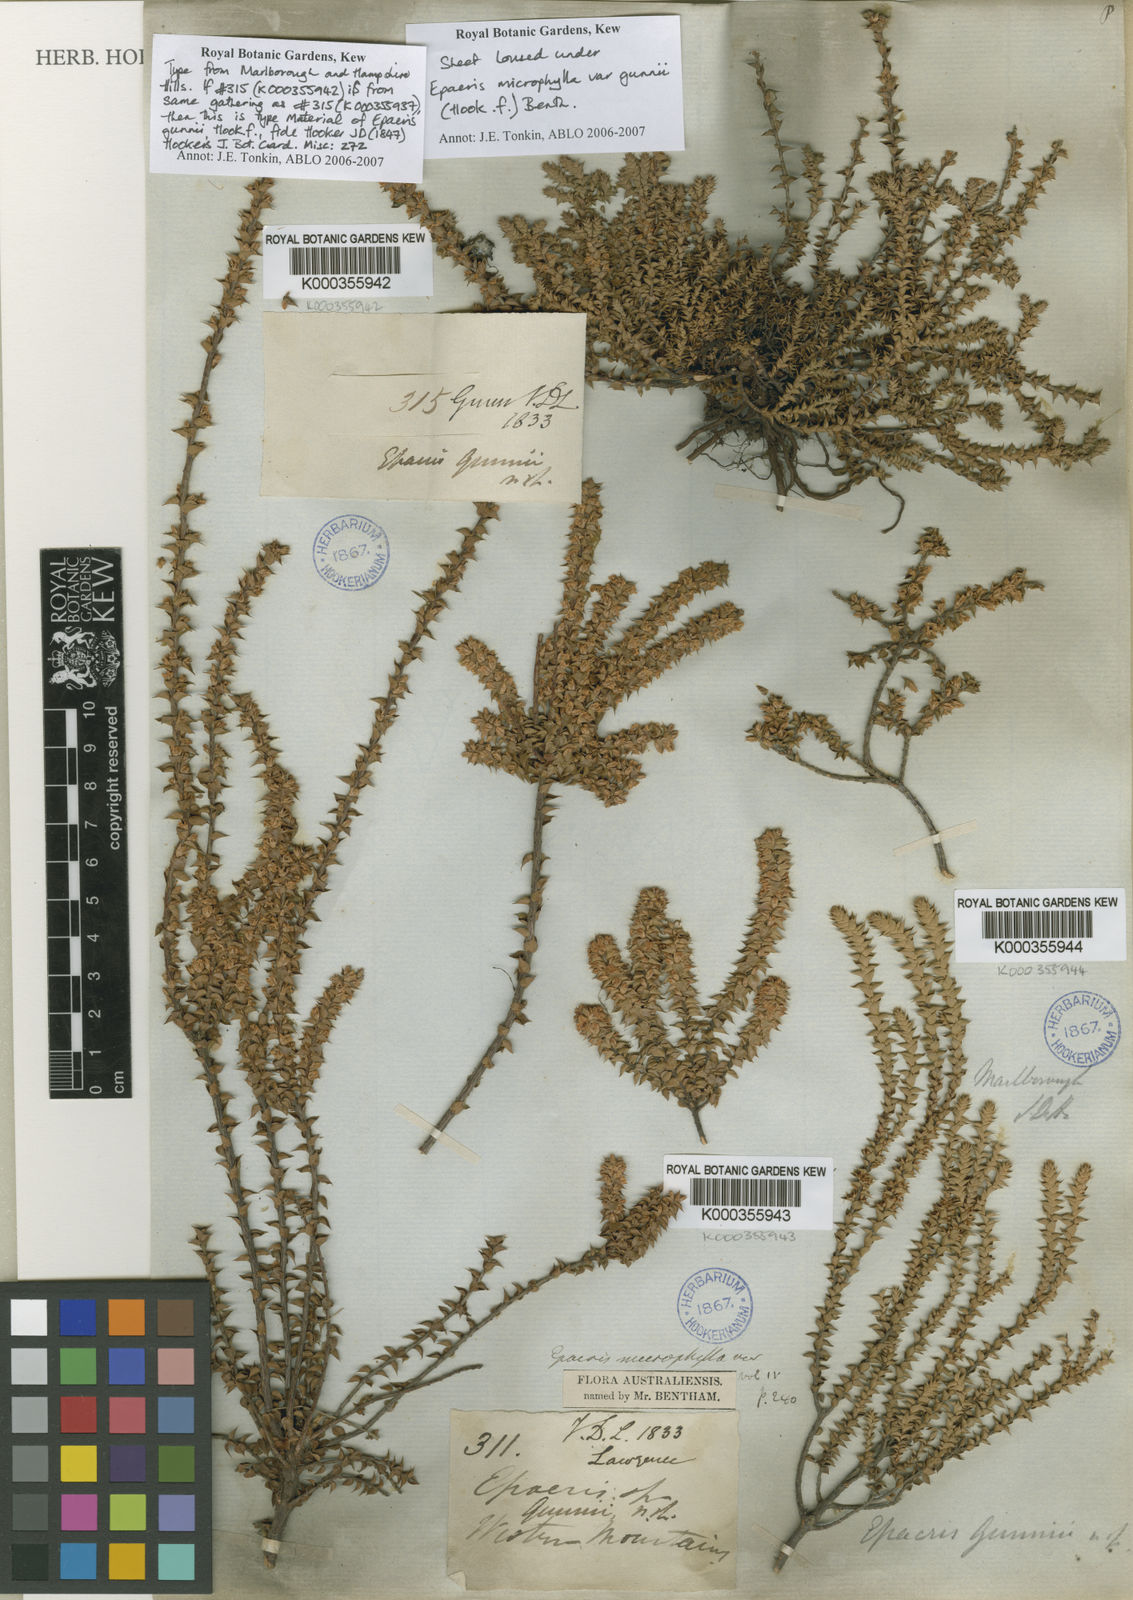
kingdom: Plantae
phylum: Tracheophyta
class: Magnoliopsida
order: Ericales
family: Ericaceae
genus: Epacris
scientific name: Epacris microphylla
